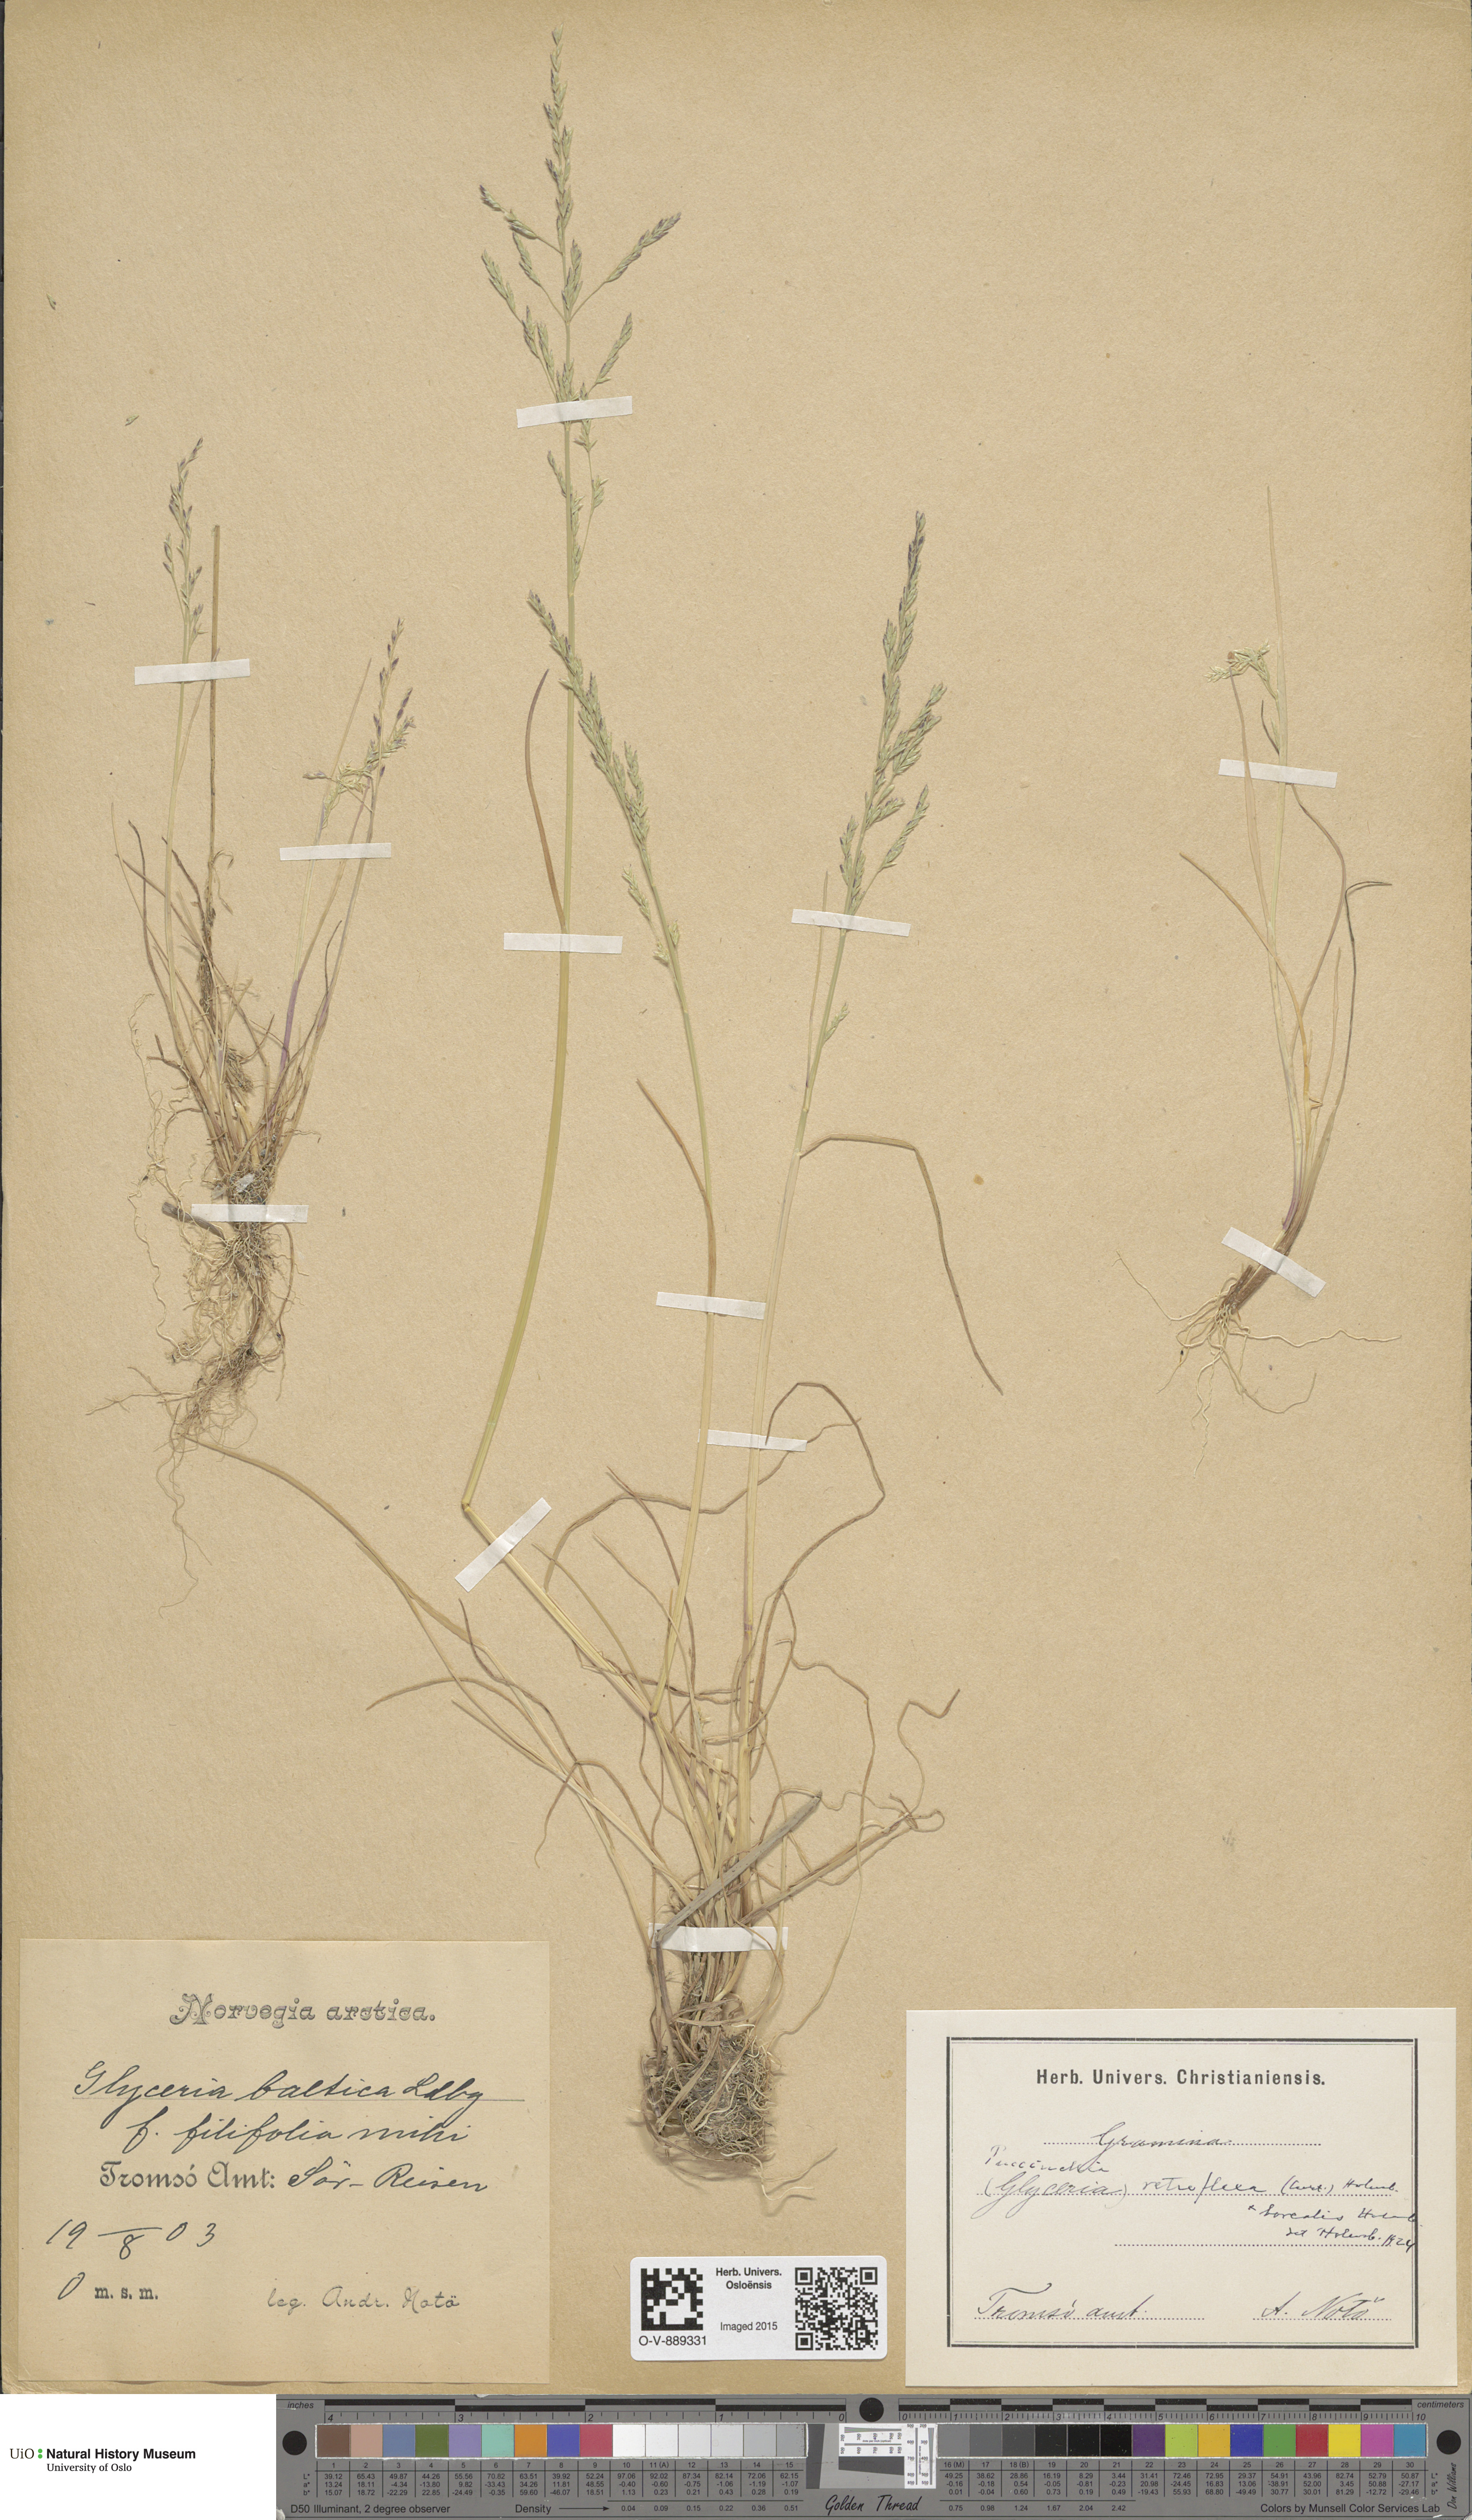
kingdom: Plantae
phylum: Tracheophyta
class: Liliopsida
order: Poales
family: Poaceae
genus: Puccinellia
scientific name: Puccinellia distans
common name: Weeping alkaligrass
